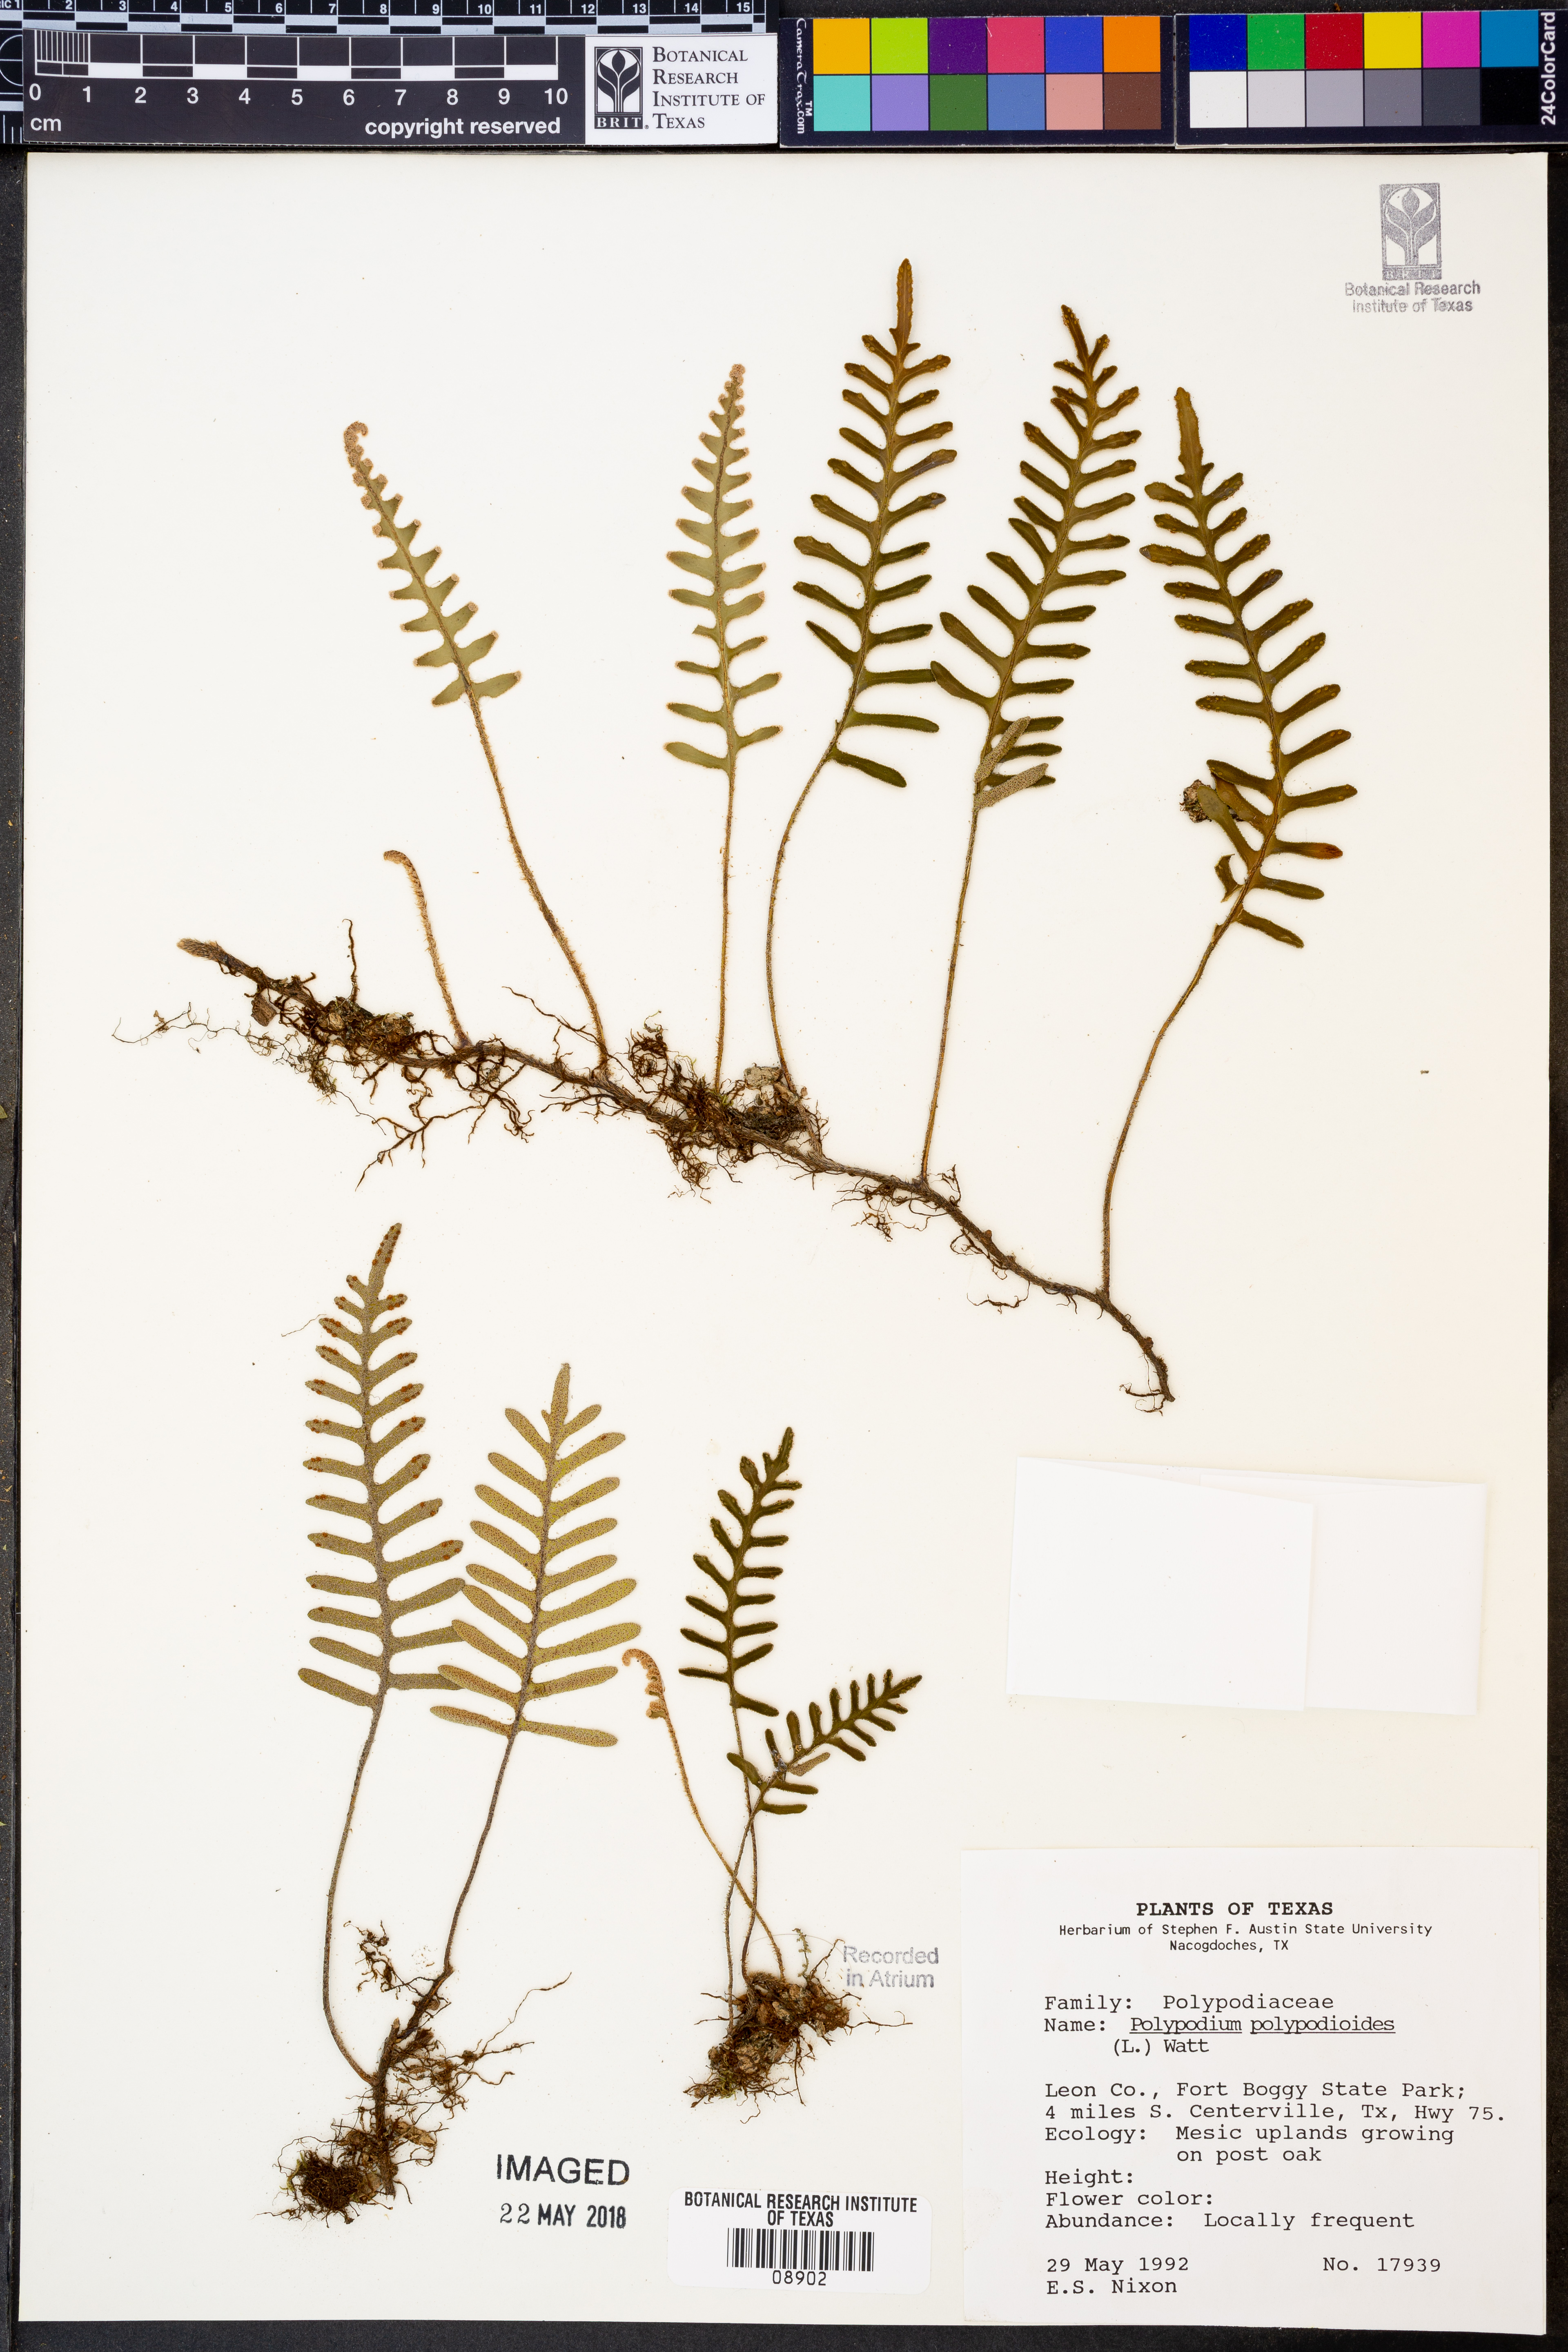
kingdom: Plantae
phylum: Tracheophyta
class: Polypodiopsida
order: Polypodiales
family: Polypodiaceae
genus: Pleopeltis
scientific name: Pleopeltis polypodioides
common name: Resurrection fern
